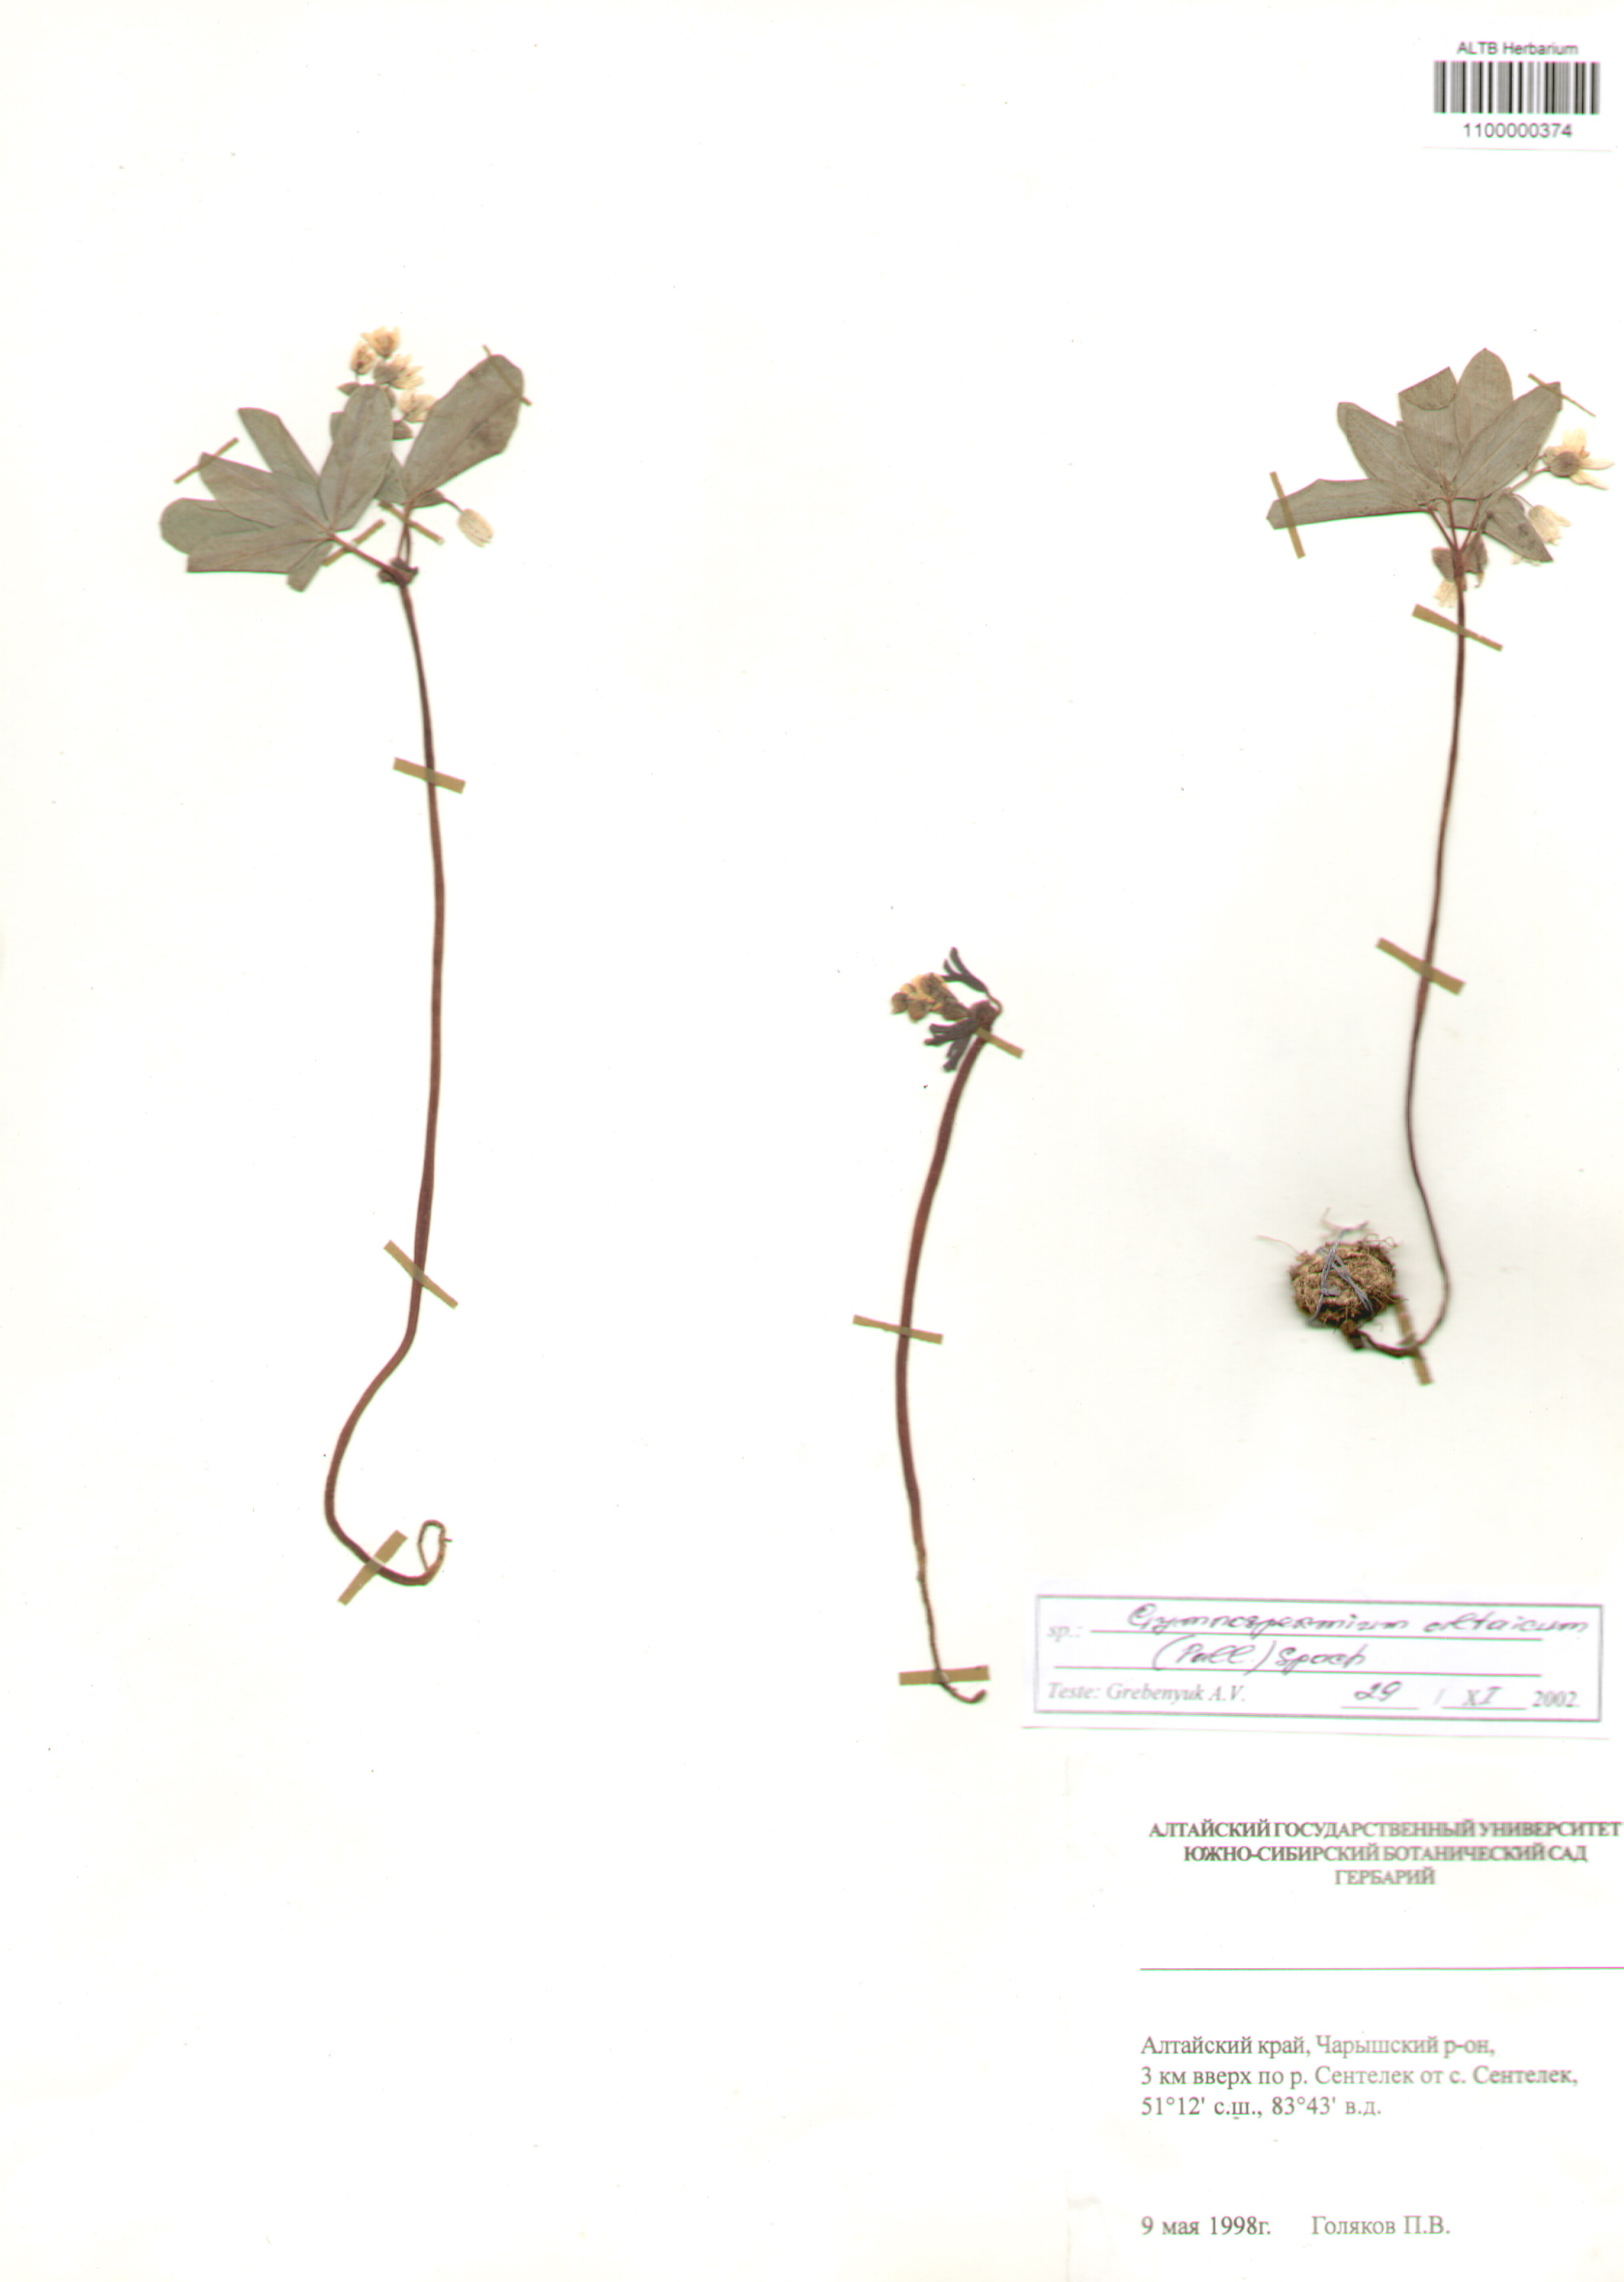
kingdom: Plantae
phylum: Tracheophyta
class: Magnoliopsida
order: Ranunculales
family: Berberidaceae
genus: Gymnospermium
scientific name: Gymnospermium altaicum
